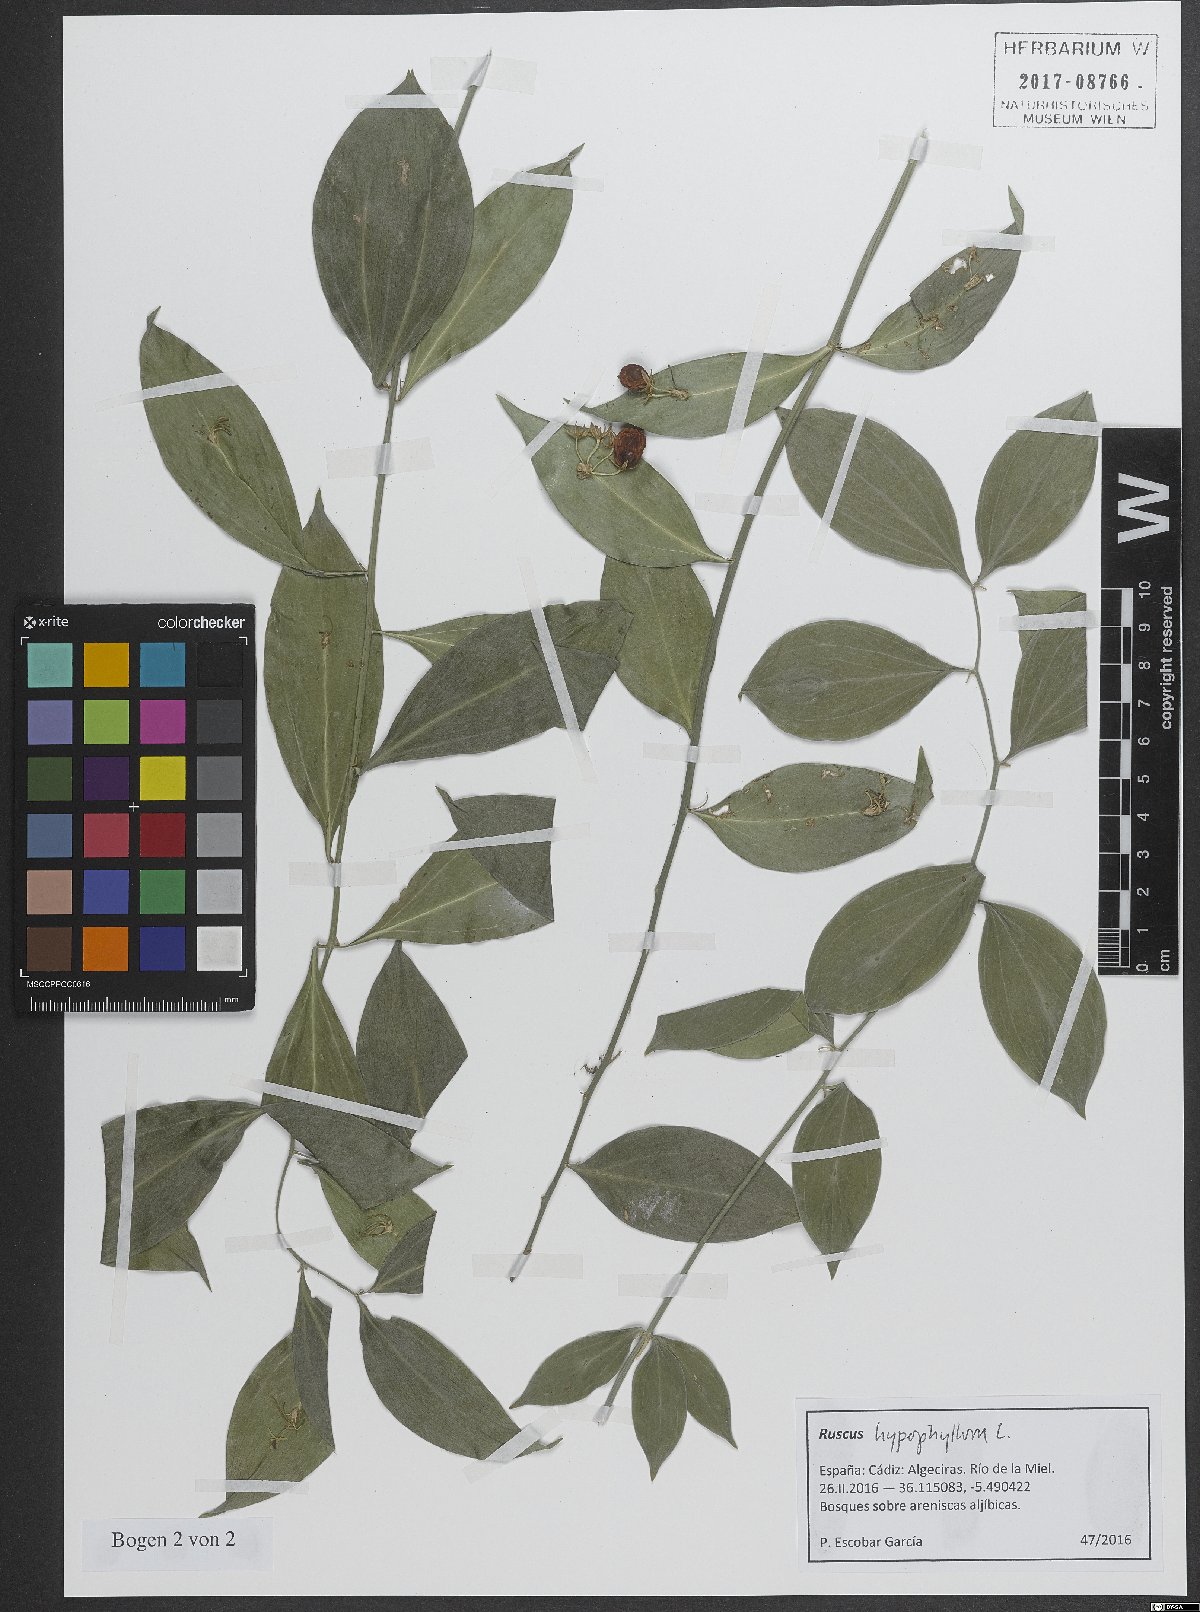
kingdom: Plantae
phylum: Tracheophyta
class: Liliopsida
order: Asparagales
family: Asparagaceae
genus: Ruscus
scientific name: Ruscus hypophyllum
